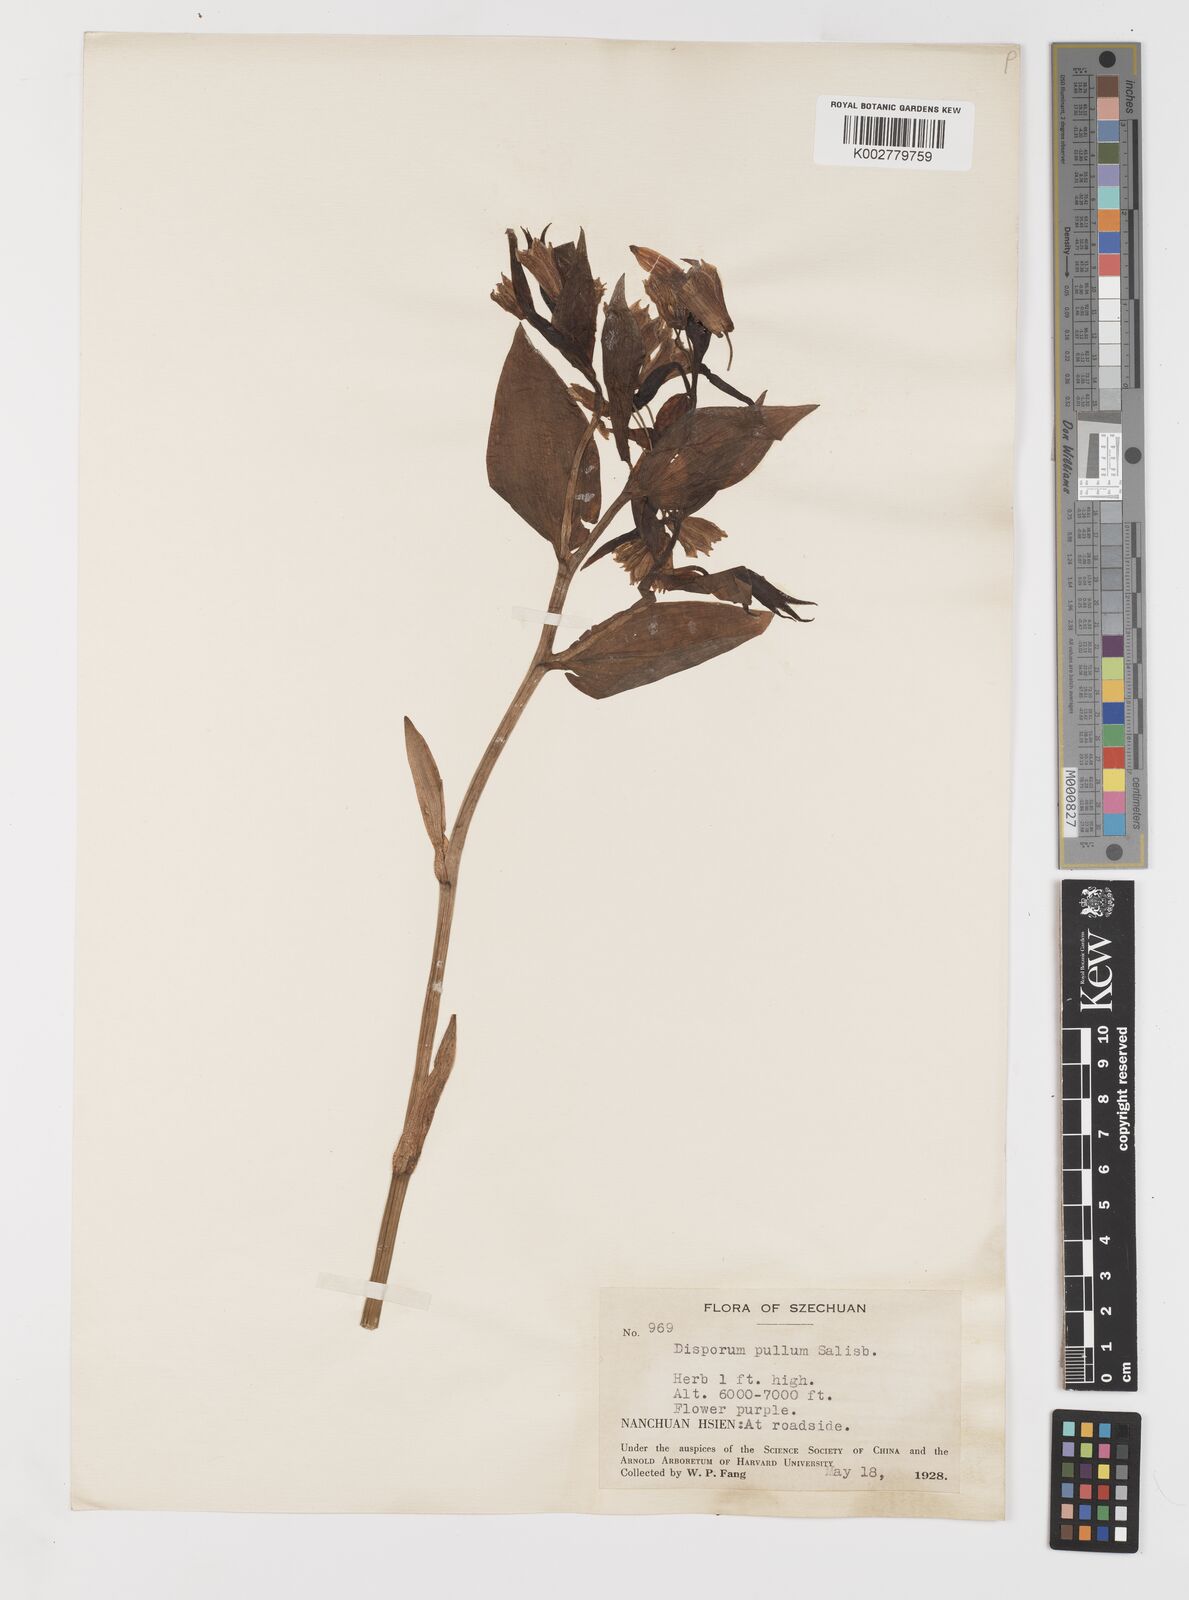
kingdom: Plantae
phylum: Tracheophyta
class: Liliopsida
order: Liliales
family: Colchicaceae
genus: Disporum
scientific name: Disporum sessile
